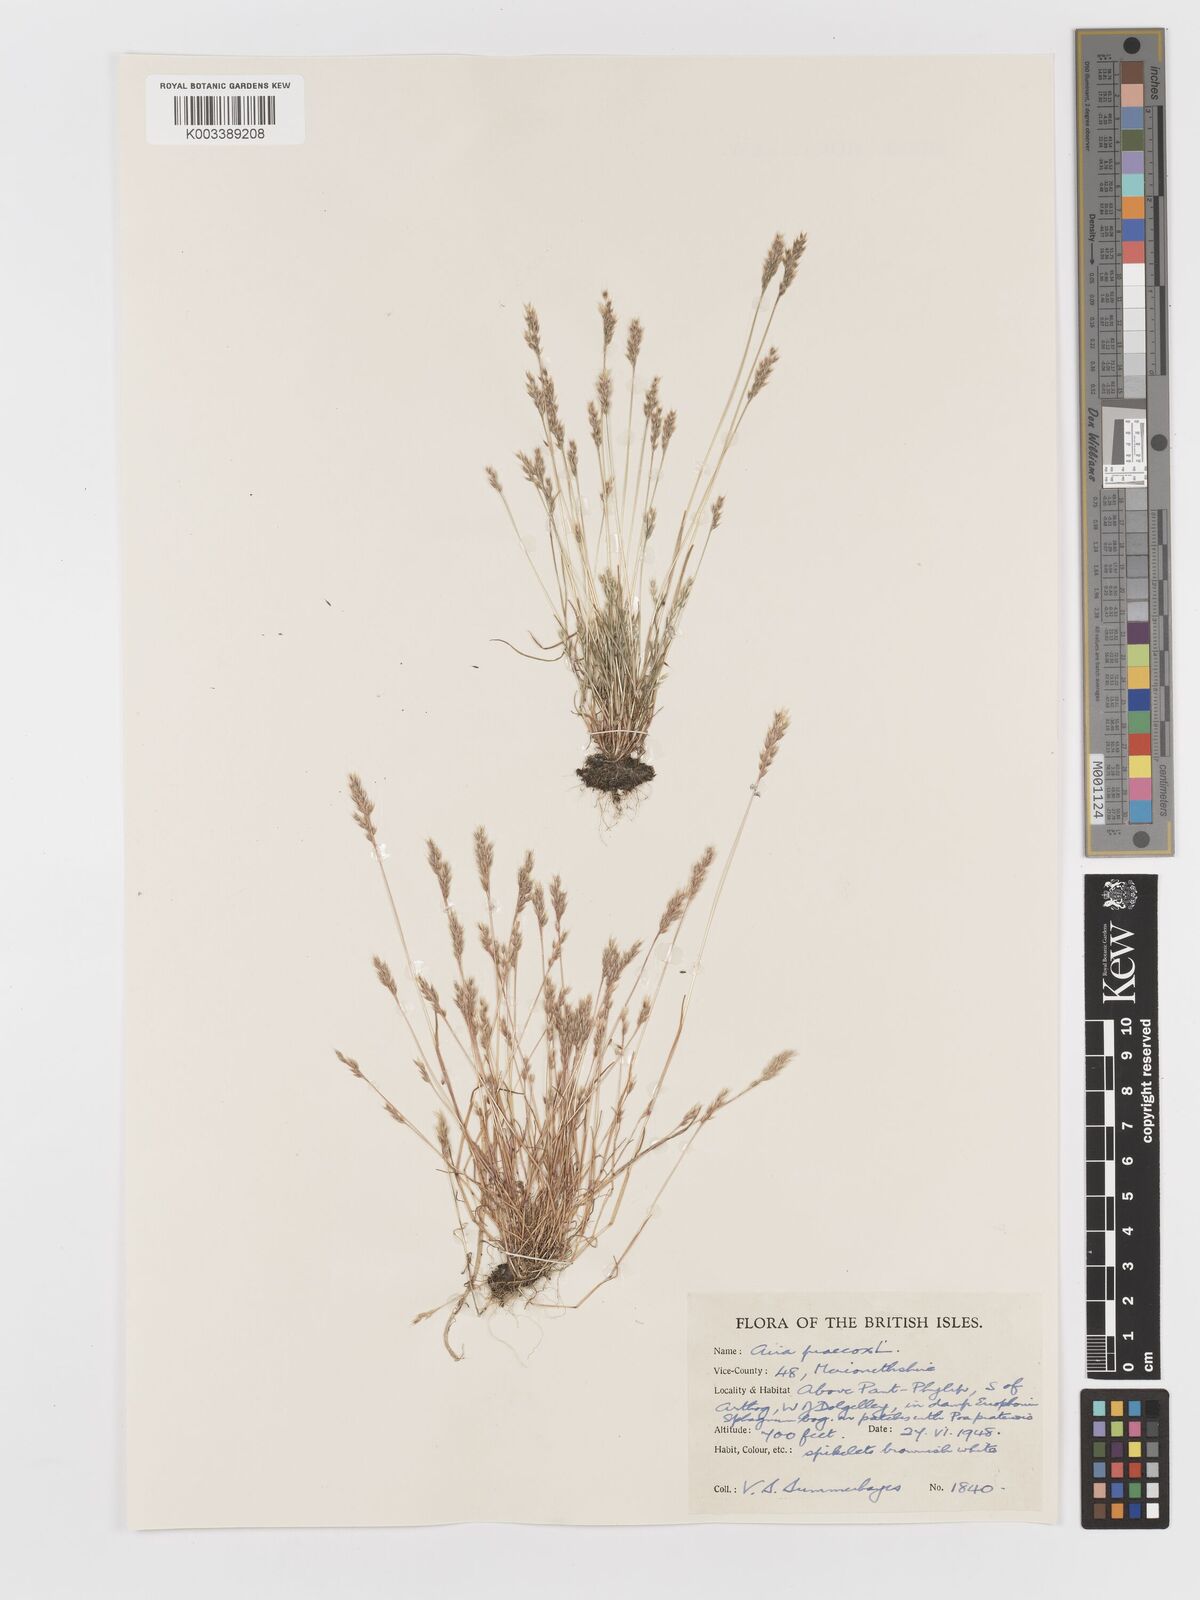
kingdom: Plantae
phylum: Tracheophyta
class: Liliopsida
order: Poales
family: Poaceae
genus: Aira
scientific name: Aira praecox
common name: Early hair-grass
